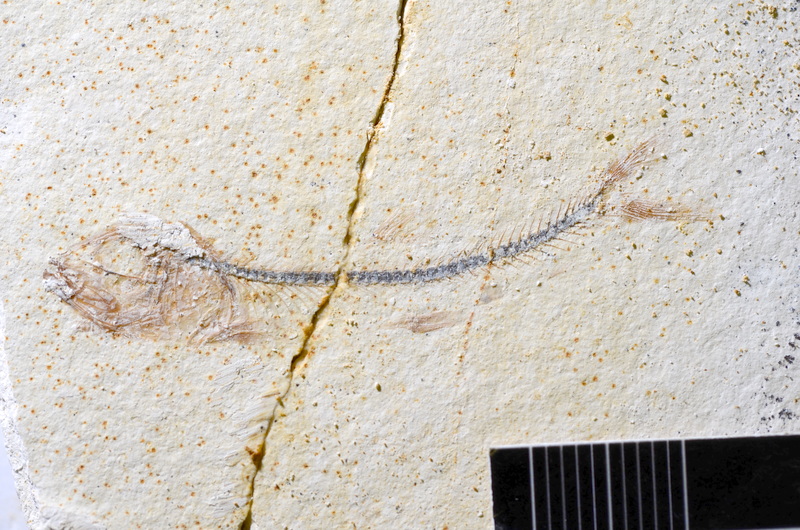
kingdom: Animalia
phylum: Chordata
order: Salmoniformes
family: Orthogonikleithridae
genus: Orthogonikleithrus
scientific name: Orthogonikleithrus hoelli
